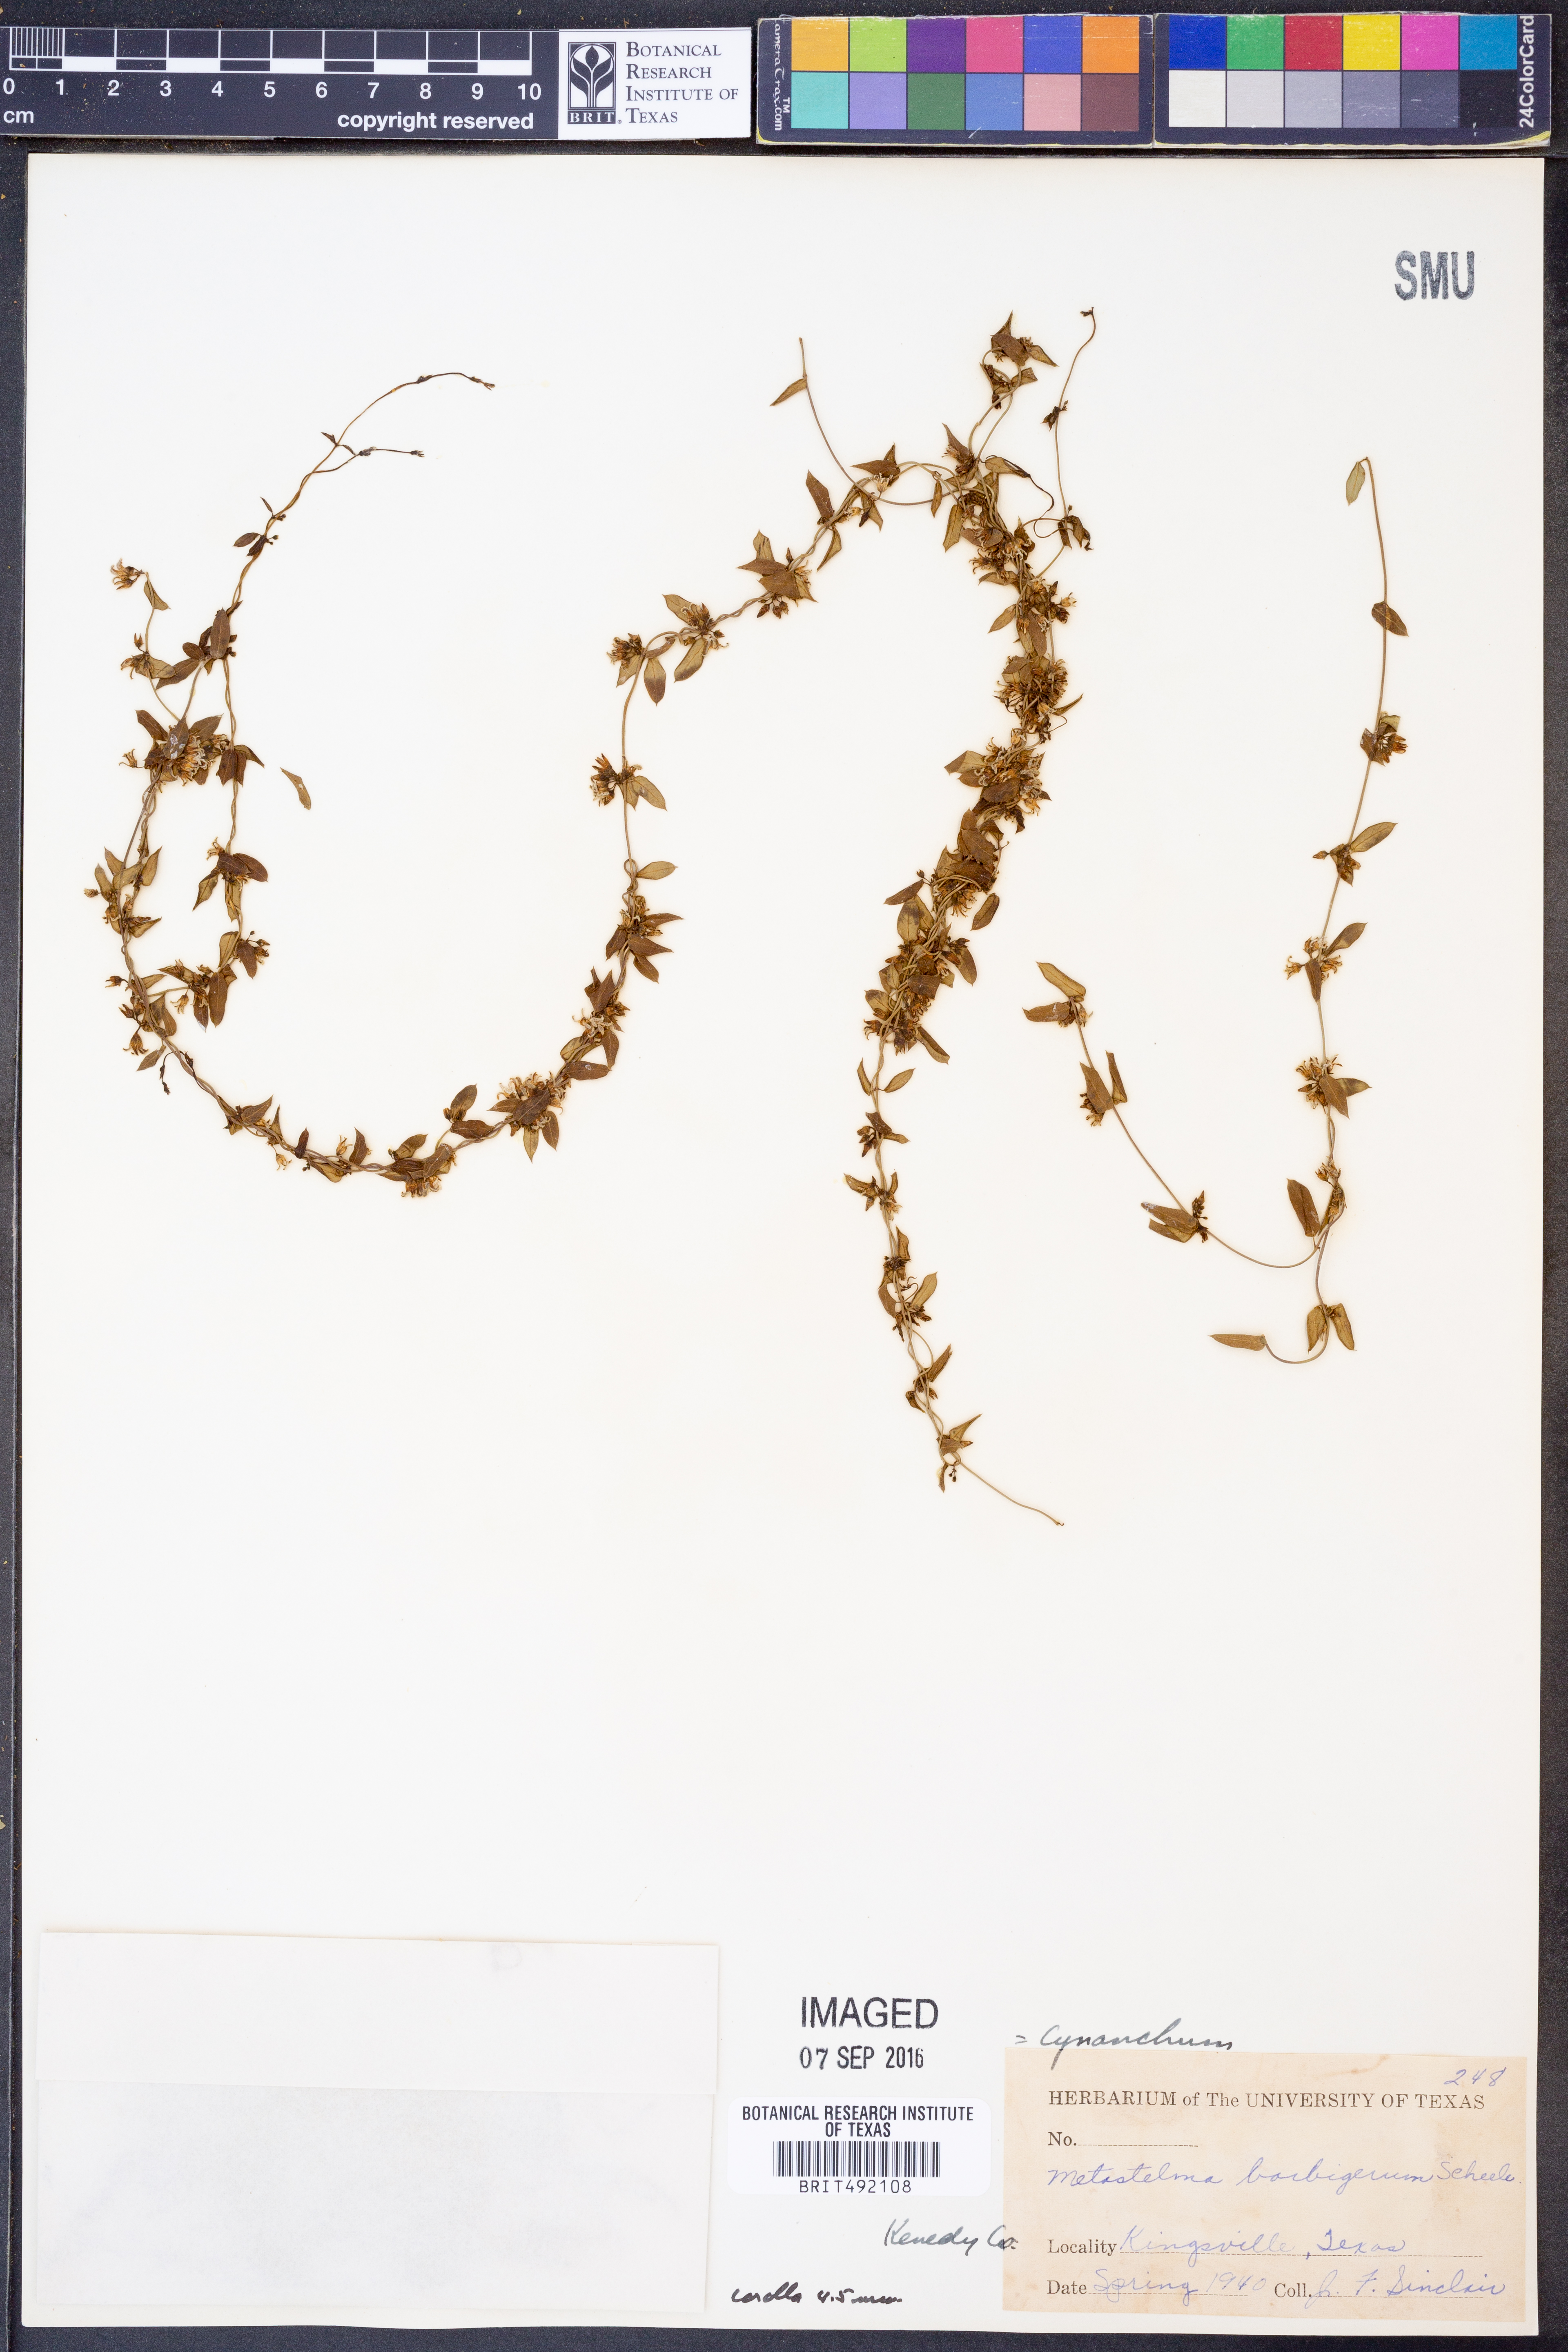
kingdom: Plantae
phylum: Tracheophyta
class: Magnoliopsida
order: Gentianales
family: Apocynaceae
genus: Metastelma
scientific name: Metastelma barbigerum
